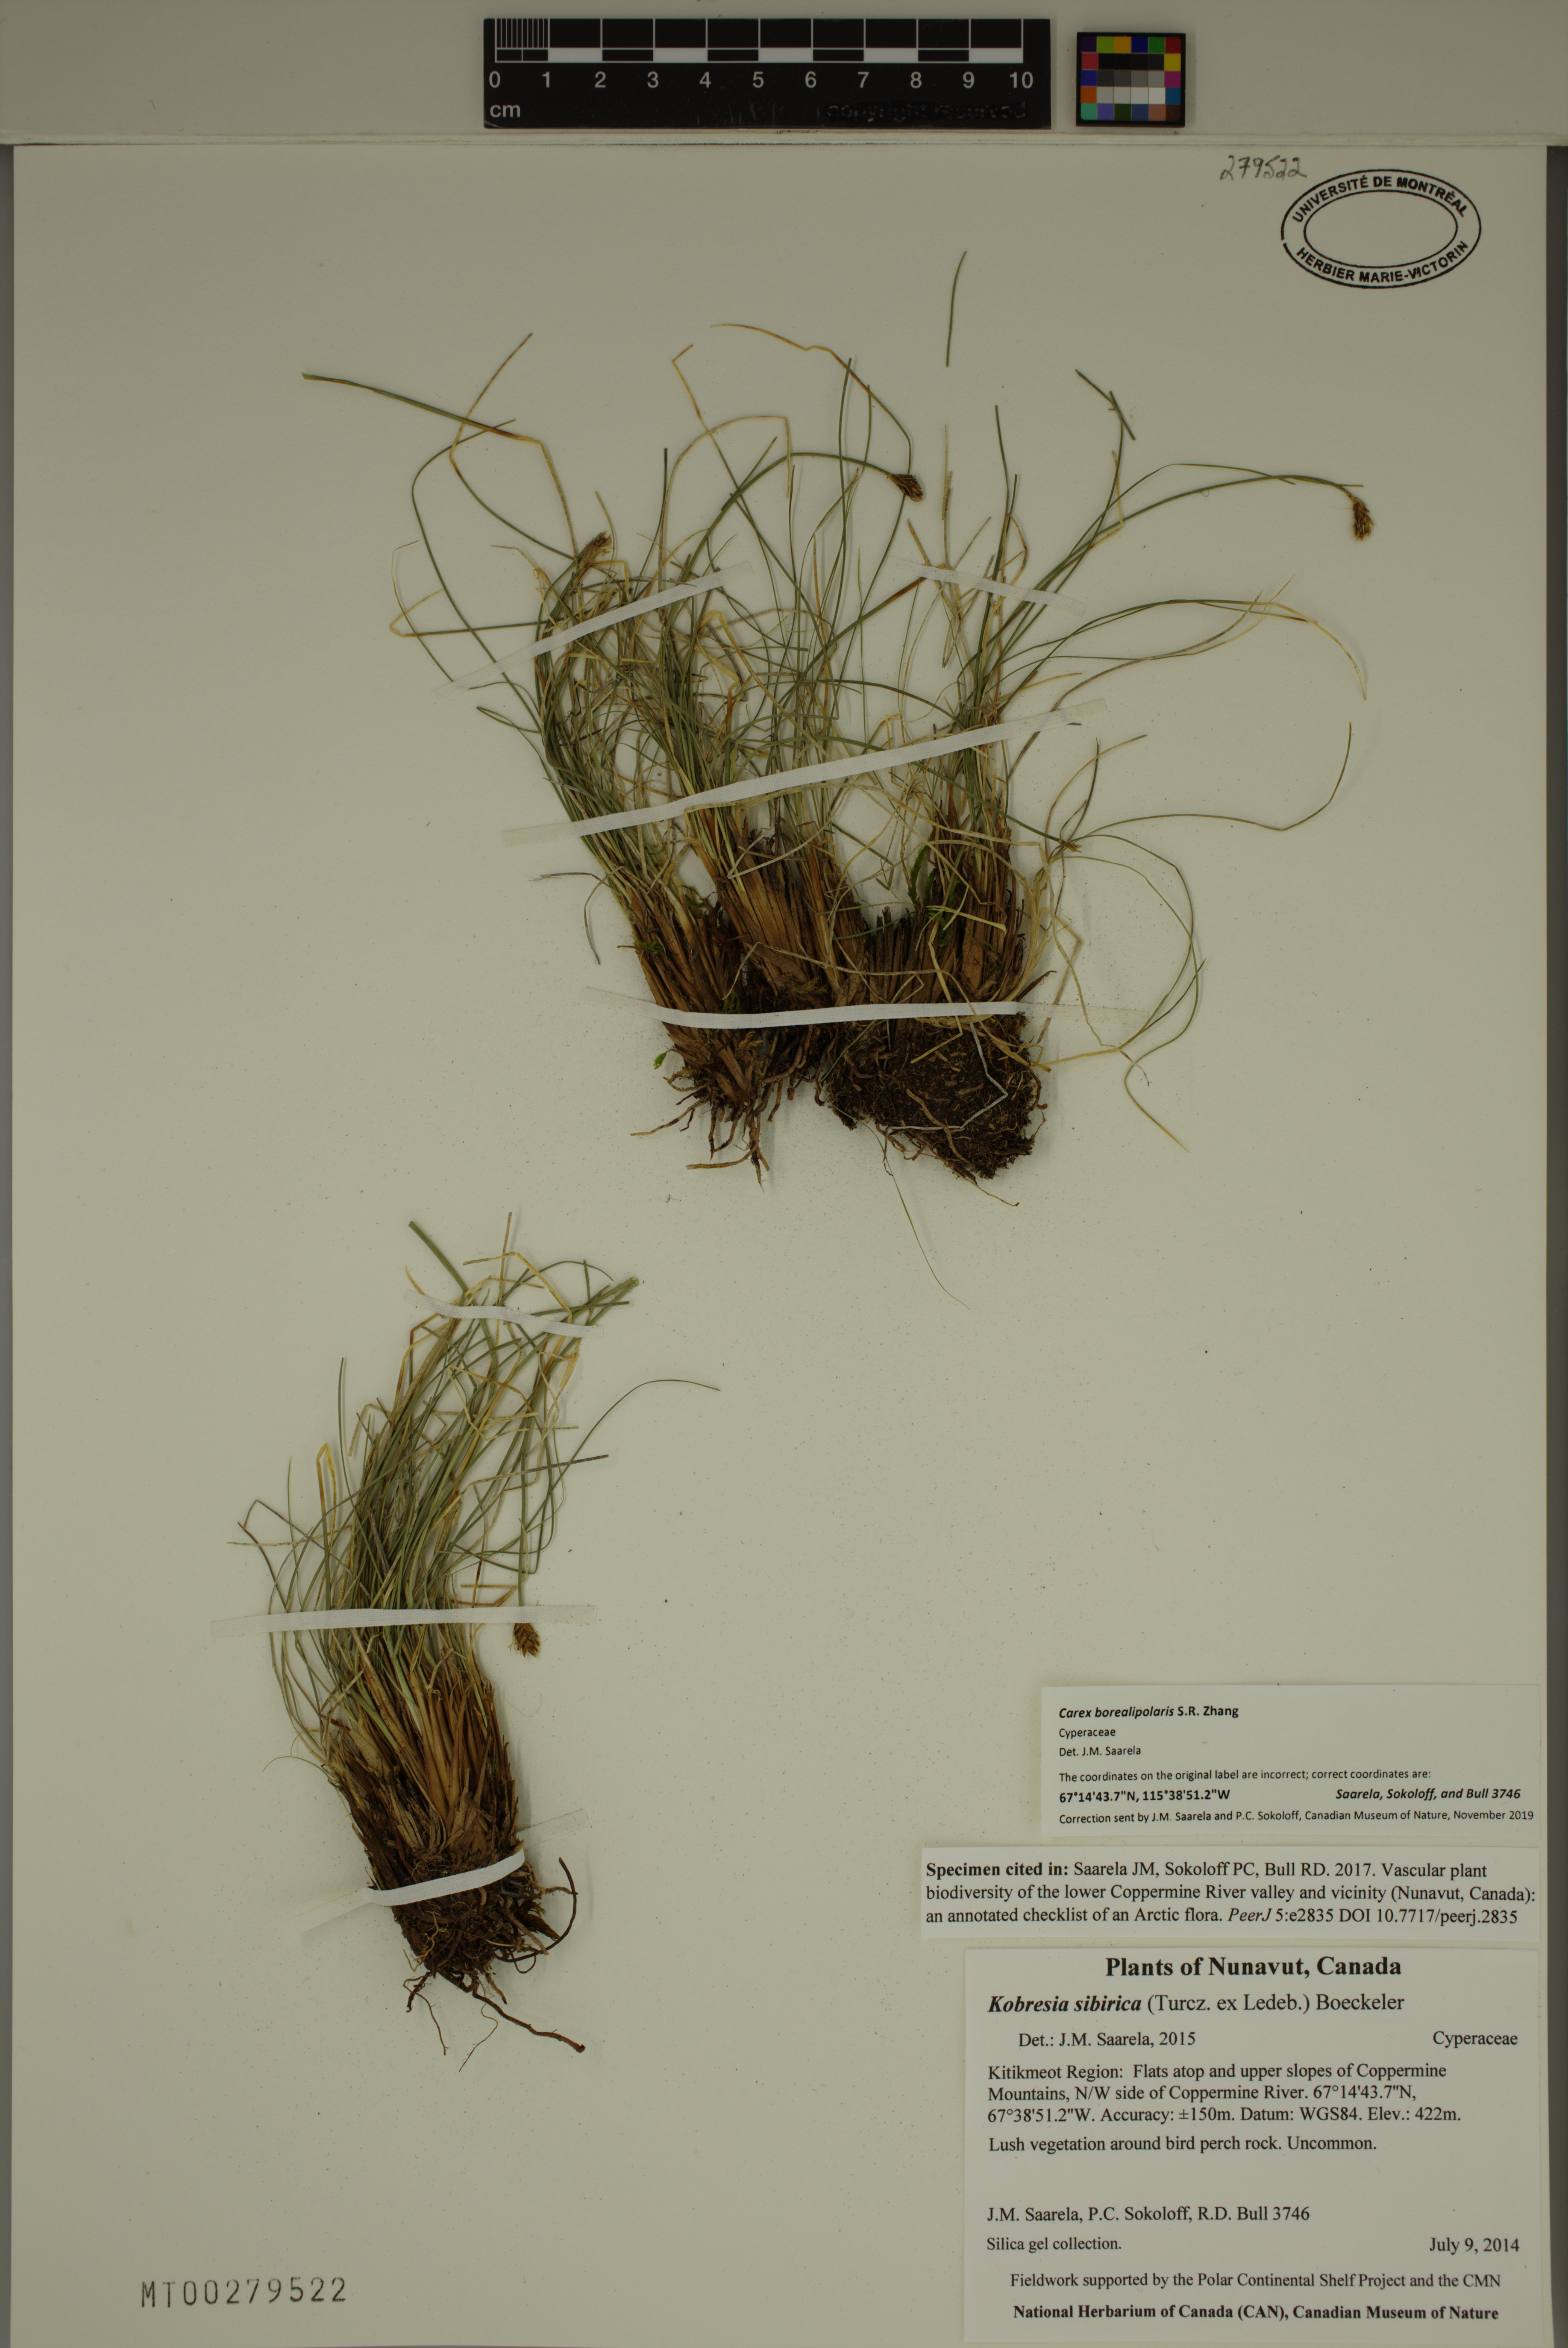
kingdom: Plantae
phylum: Tracheophyta
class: Liliopsida
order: Poales
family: Cyperaceae
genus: Carex
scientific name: Carex borealipolaris
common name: Siberian bog sedge
